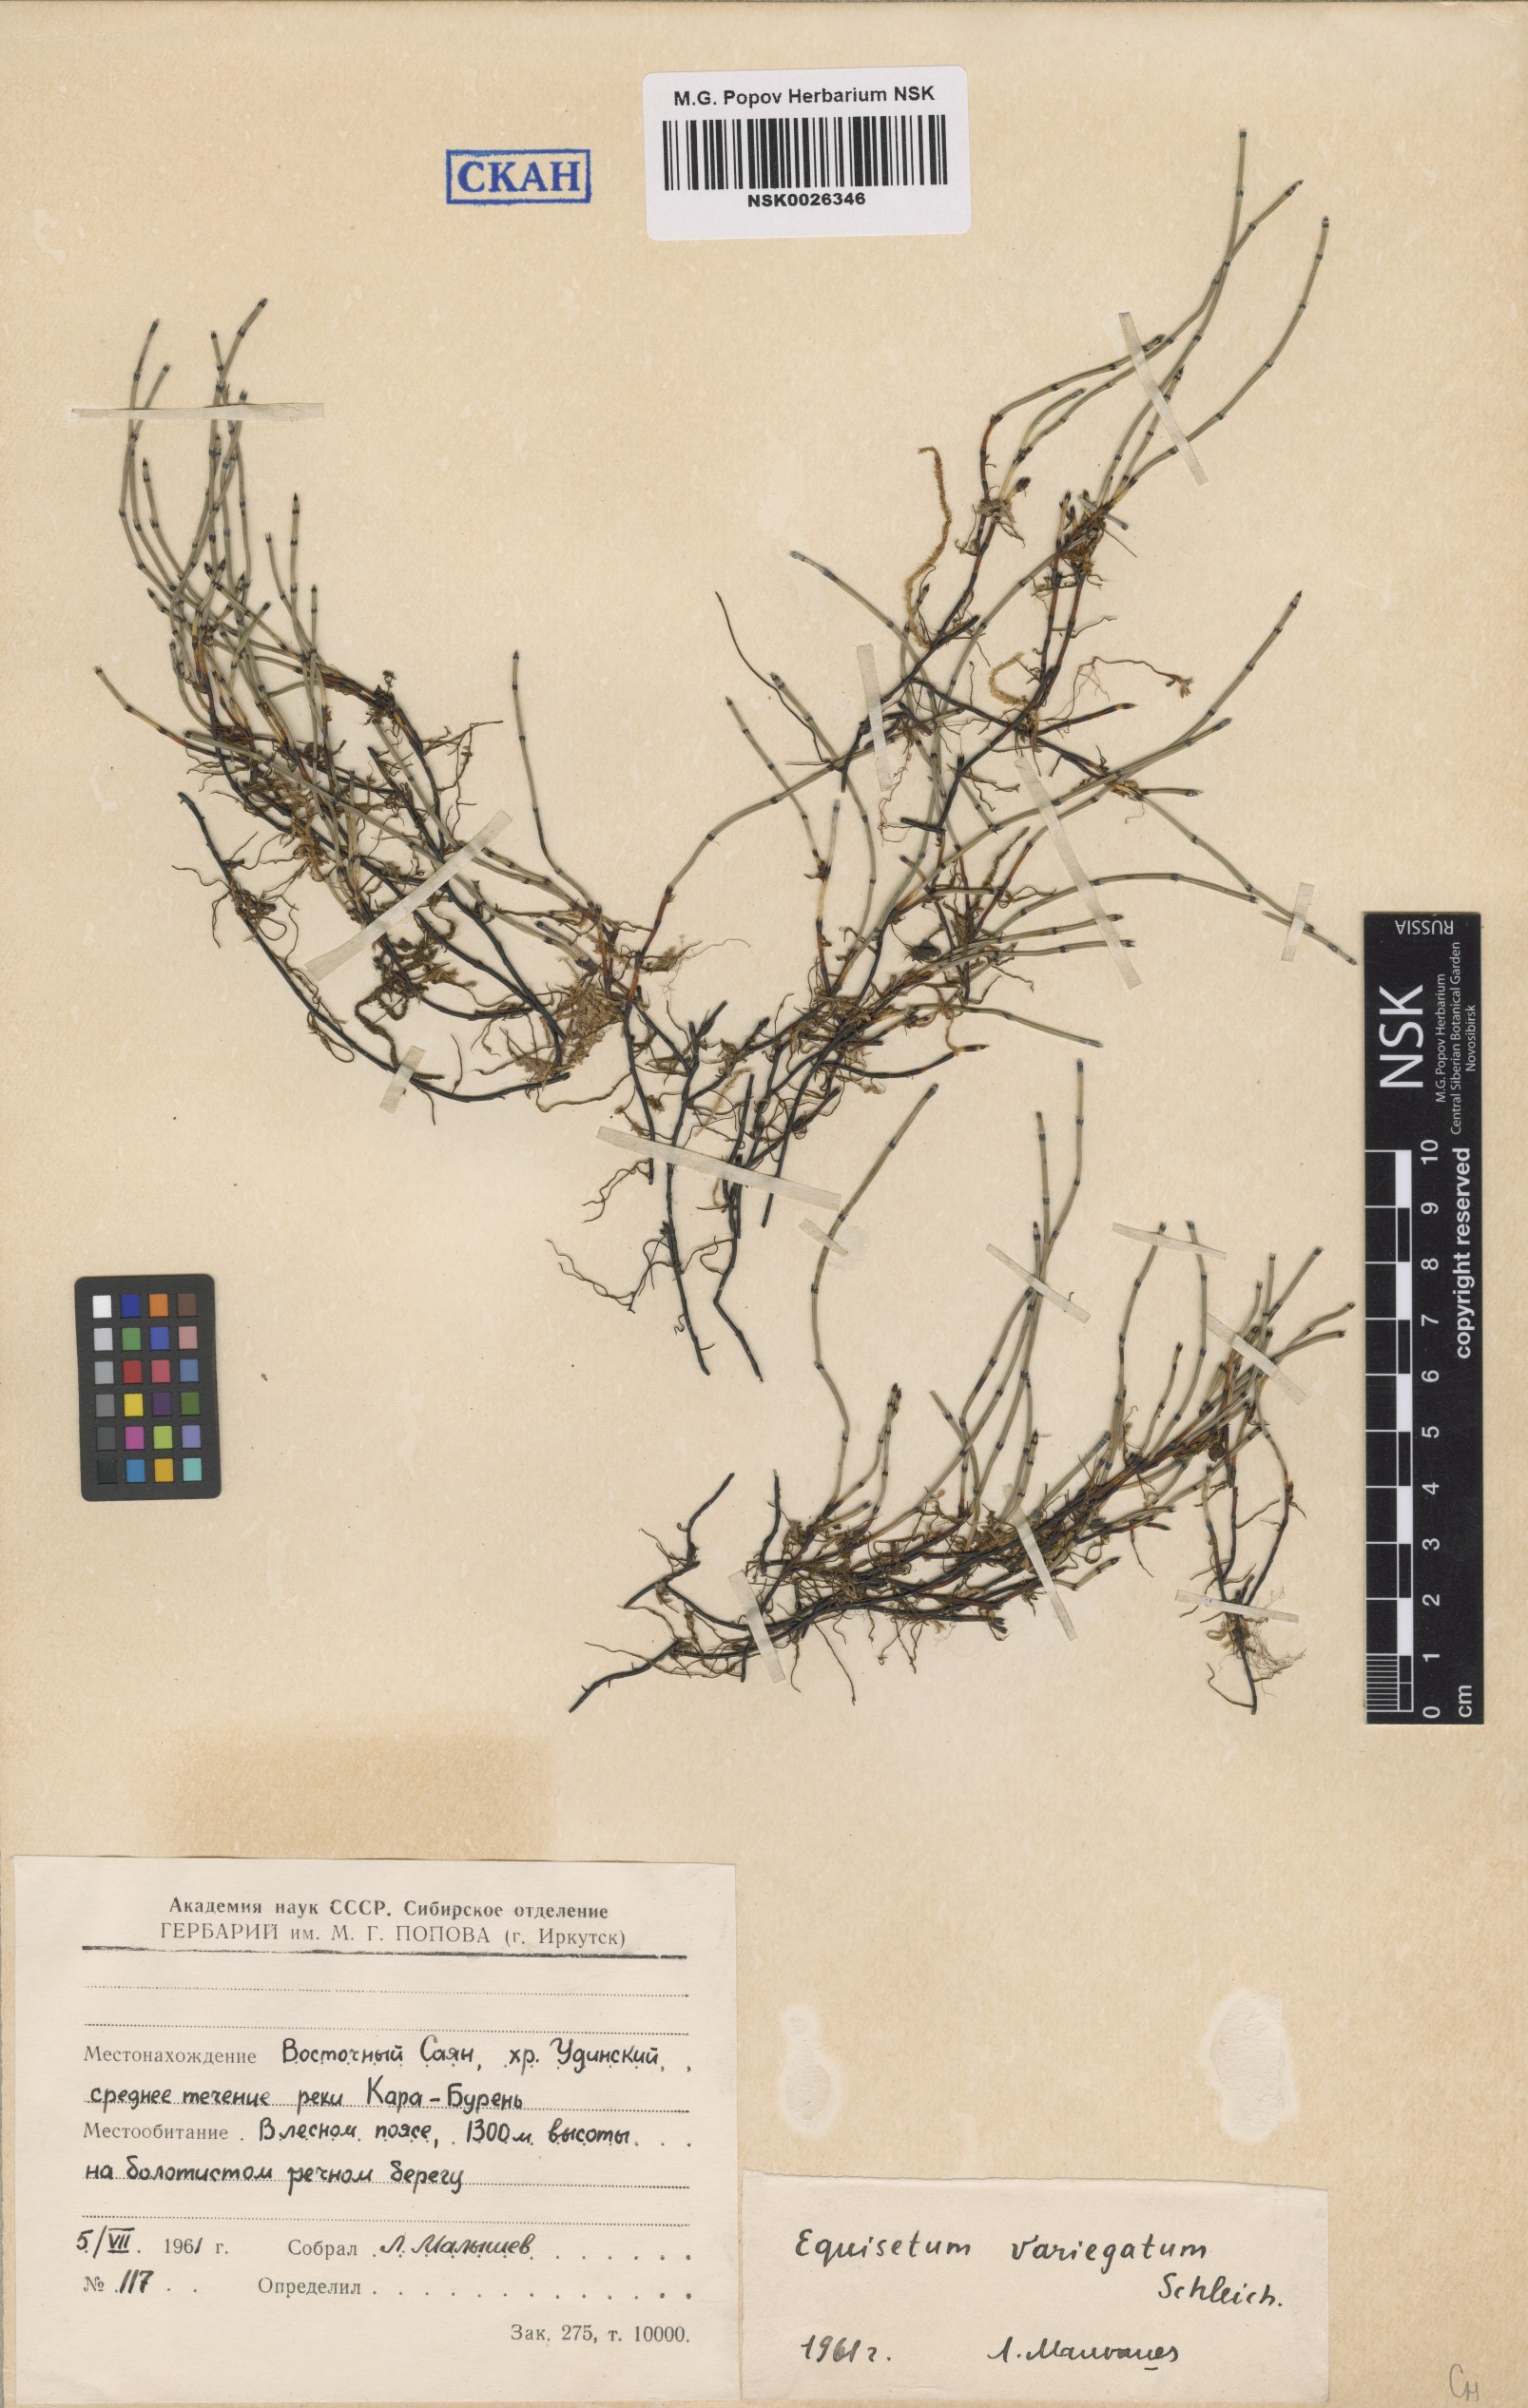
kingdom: Plantae
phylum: Tracheophyta
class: Polypodiopsida
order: Equisetales
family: Equisetaceae
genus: Equisetum
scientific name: Equisetum variegatum
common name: Variegated horsetail
